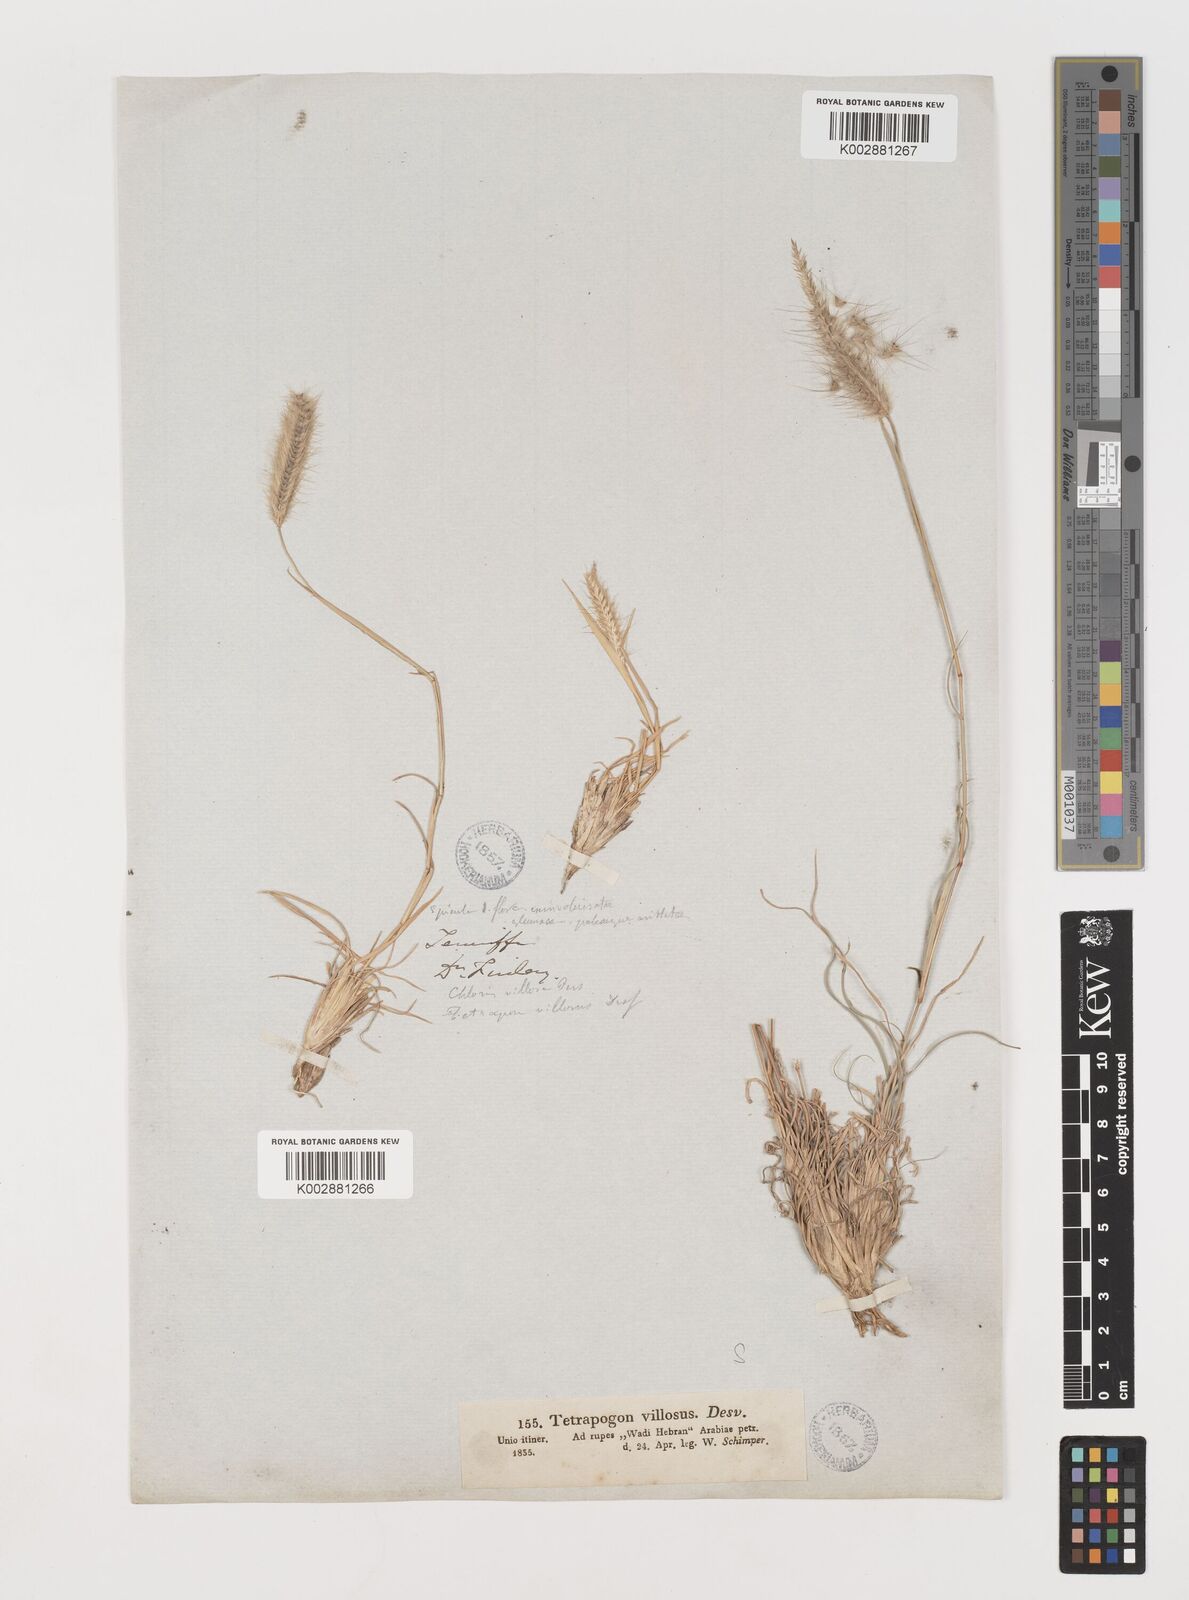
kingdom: Plantae
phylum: Tracheophyta
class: Liliopsida
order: Poales
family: Poaceae
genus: Tetrapogon
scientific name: Tetrapogon villosus
